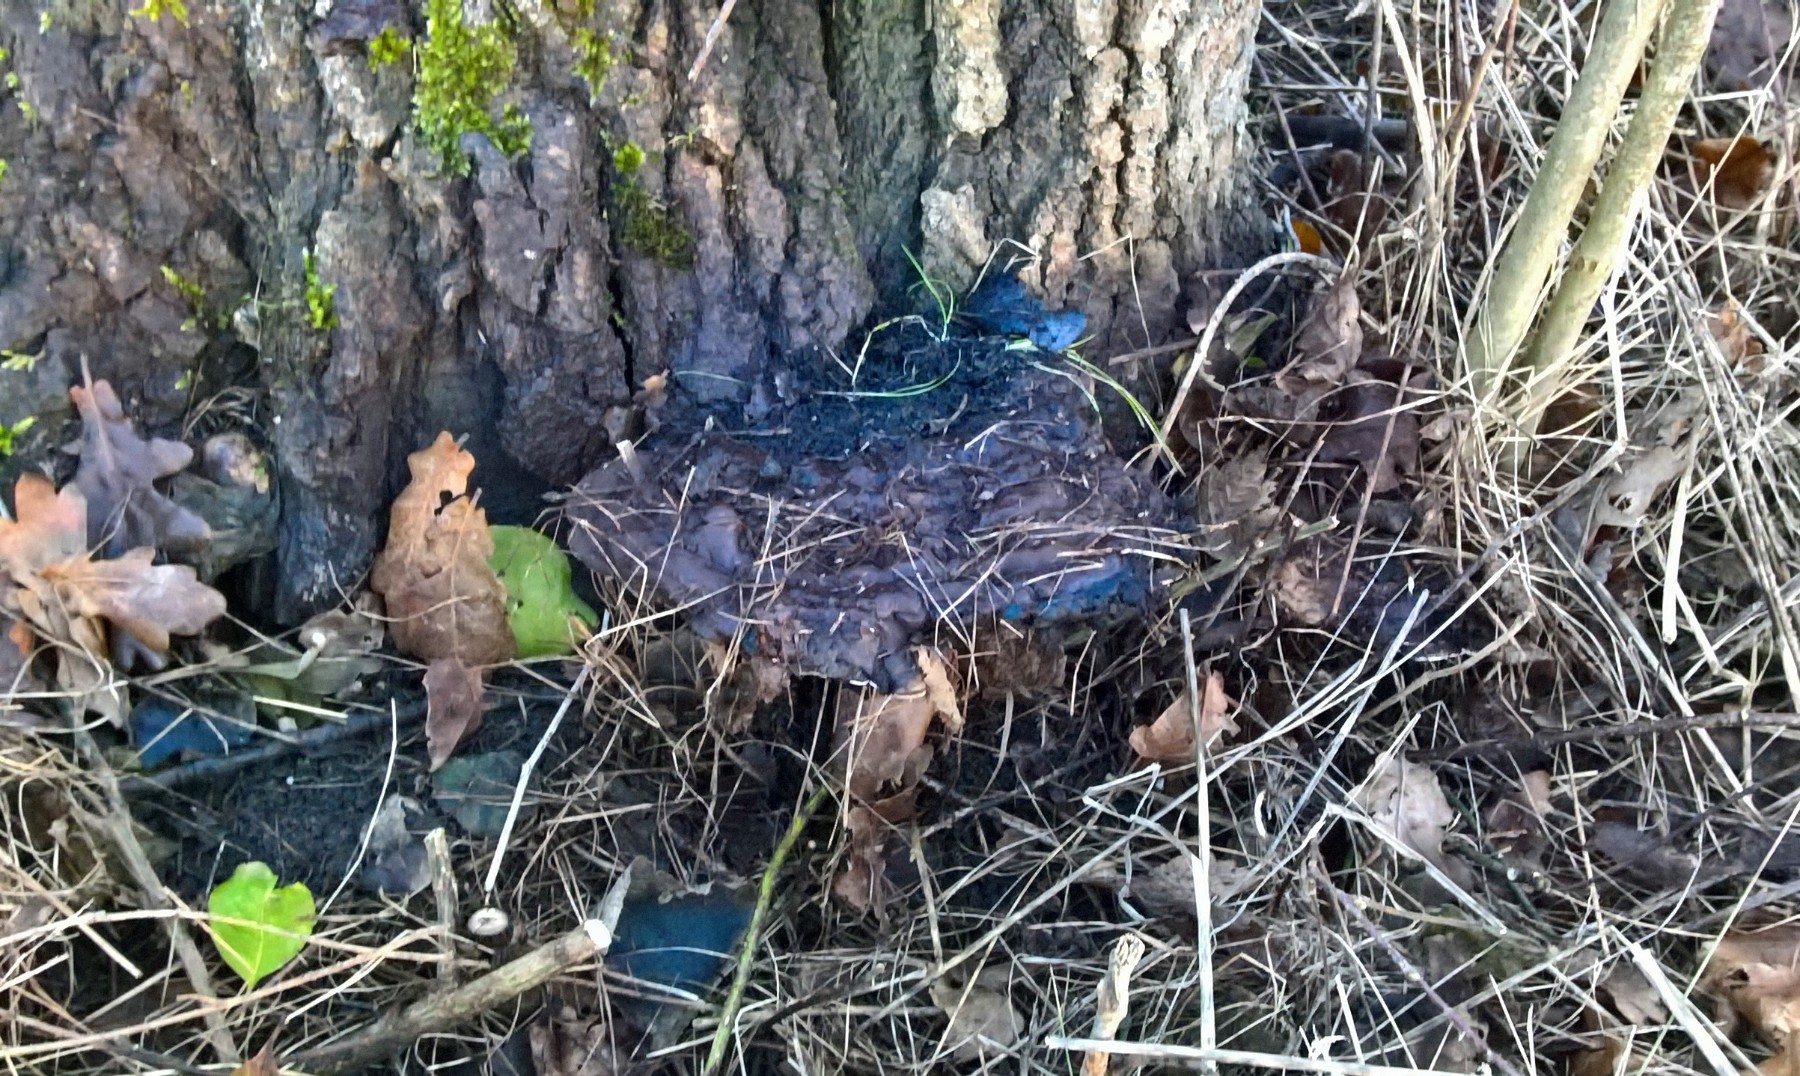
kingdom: Fungi
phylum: Basidiomycota
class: Agaricomycetes
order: Polyporales
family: Polyporaceae
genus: Ganoderma
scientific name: Ganoderma resinaceum
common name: gyldenbrun lakporesvamp
